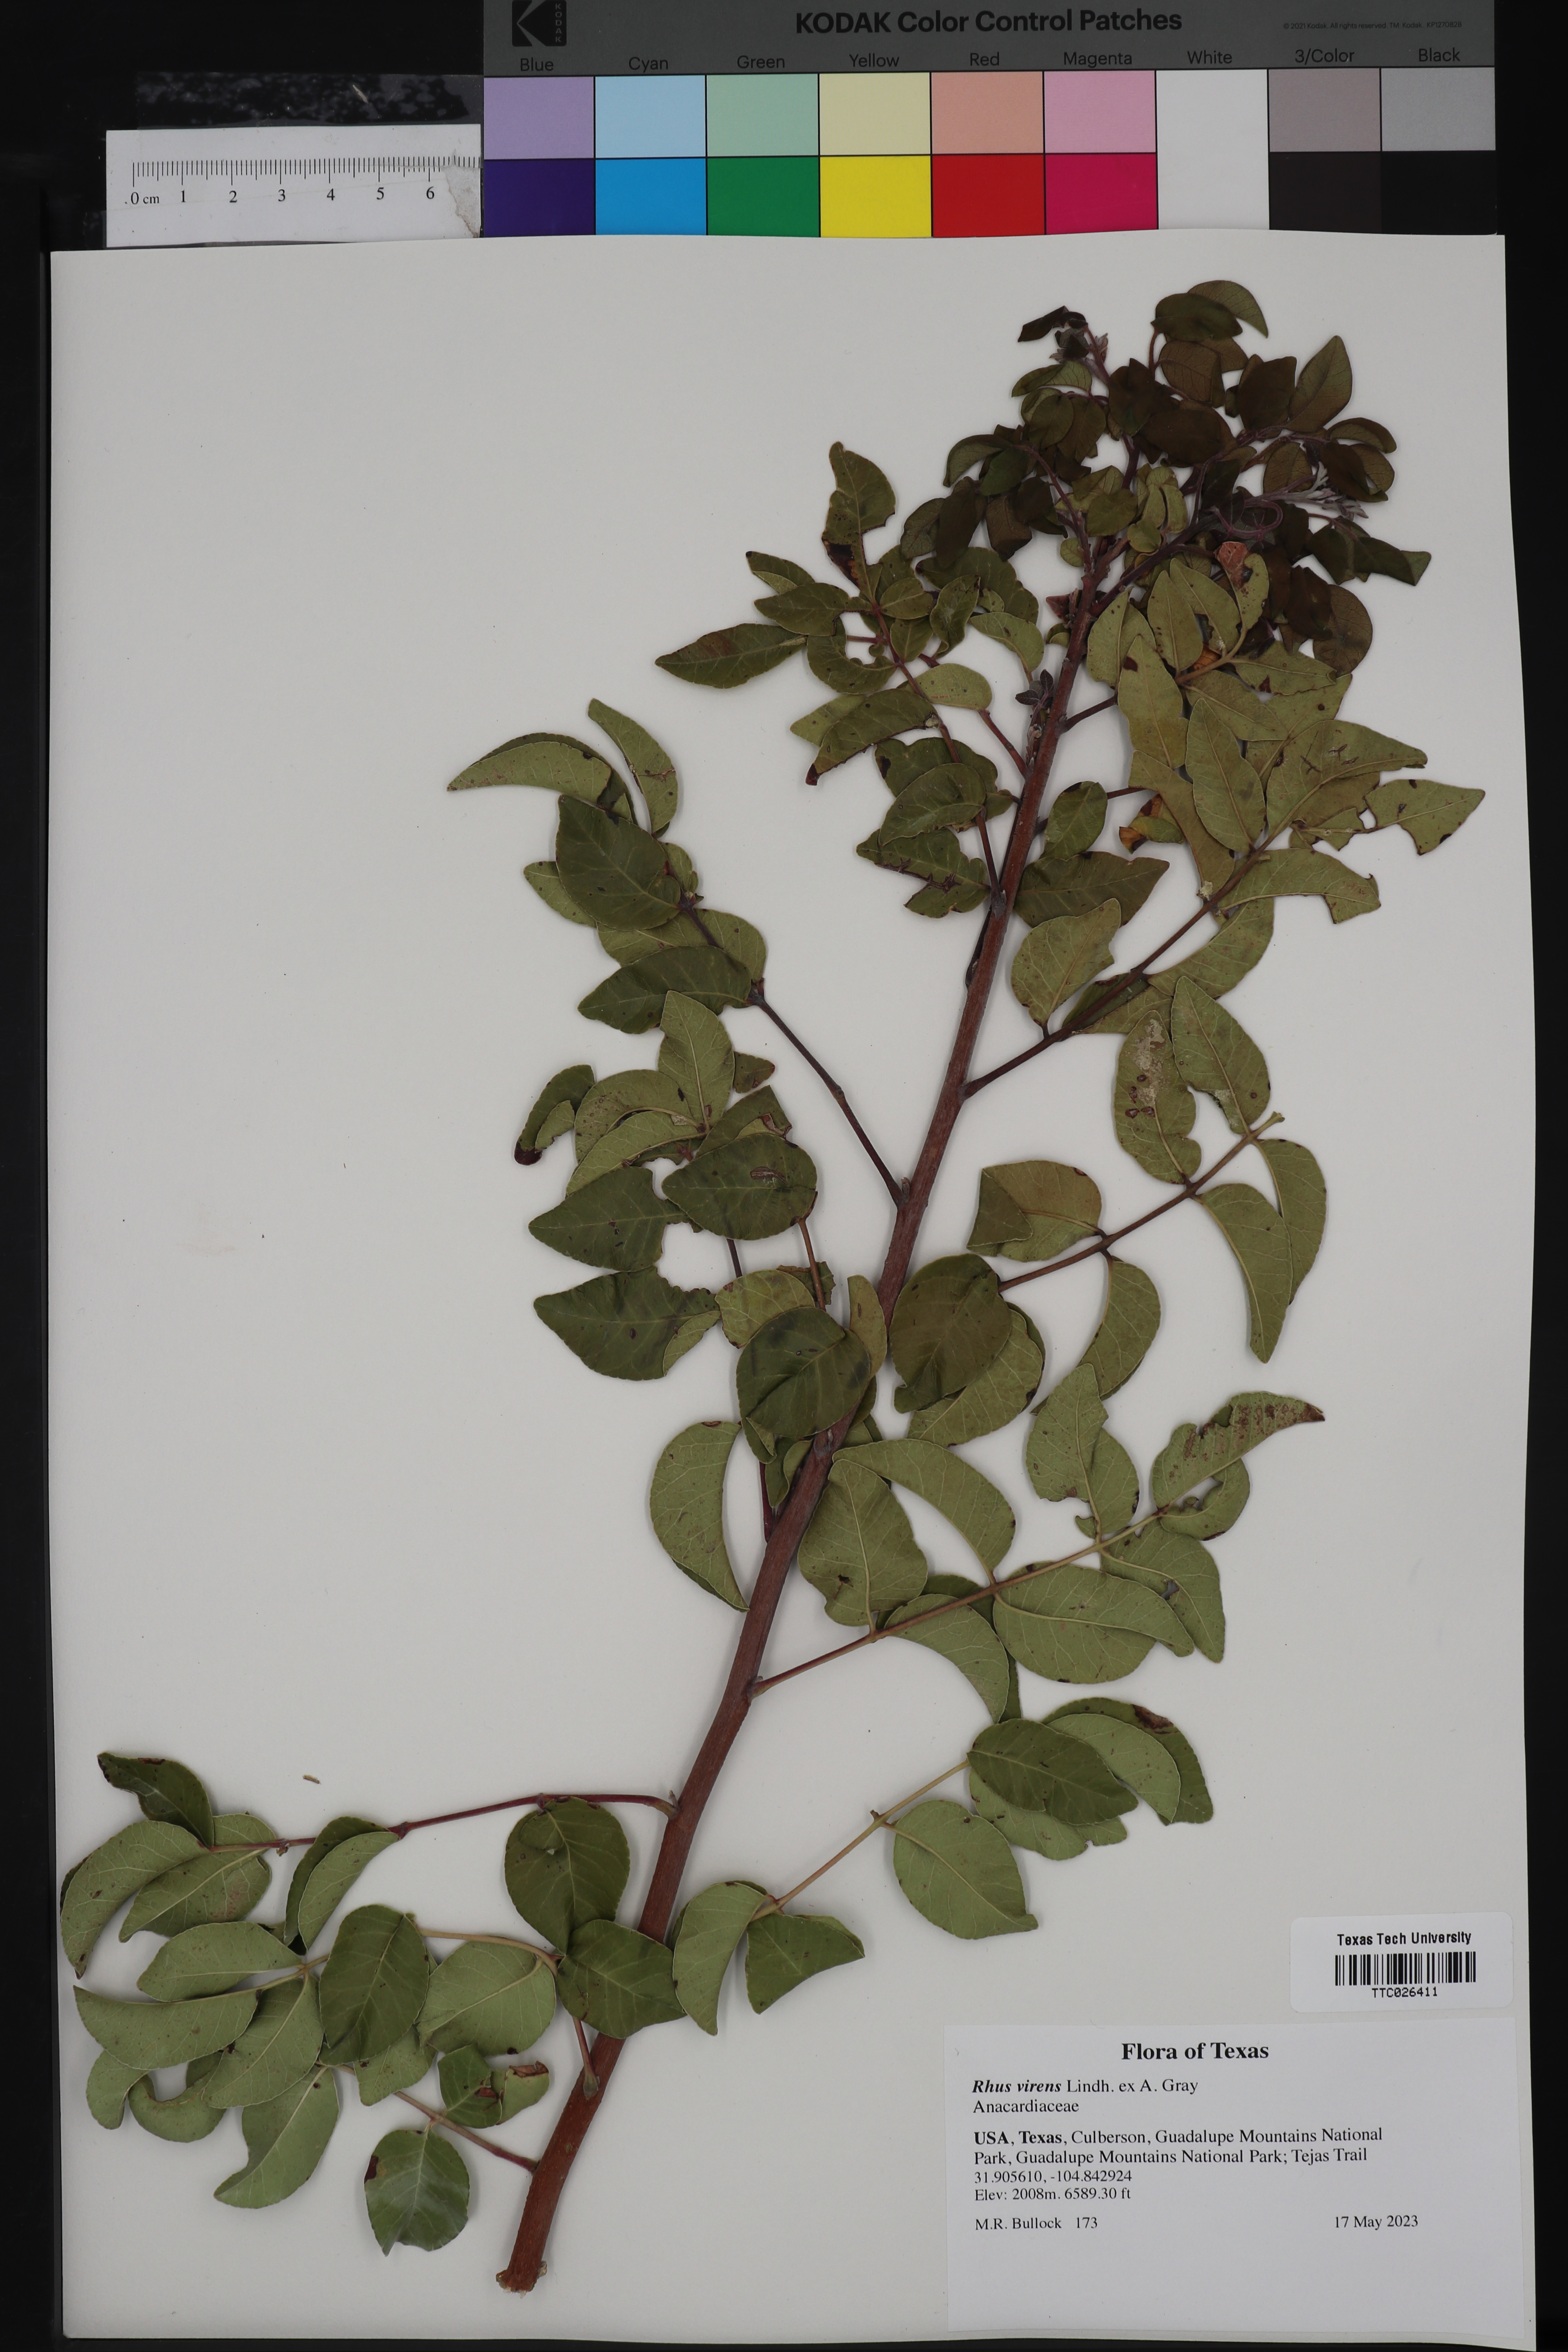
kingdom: Plantae
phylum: Tracheophyta
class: Magnoliopsida
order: Sapindales
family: Anacardiaceae
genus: Rhus
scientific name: Rhus virens
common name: Evergreen sumac
